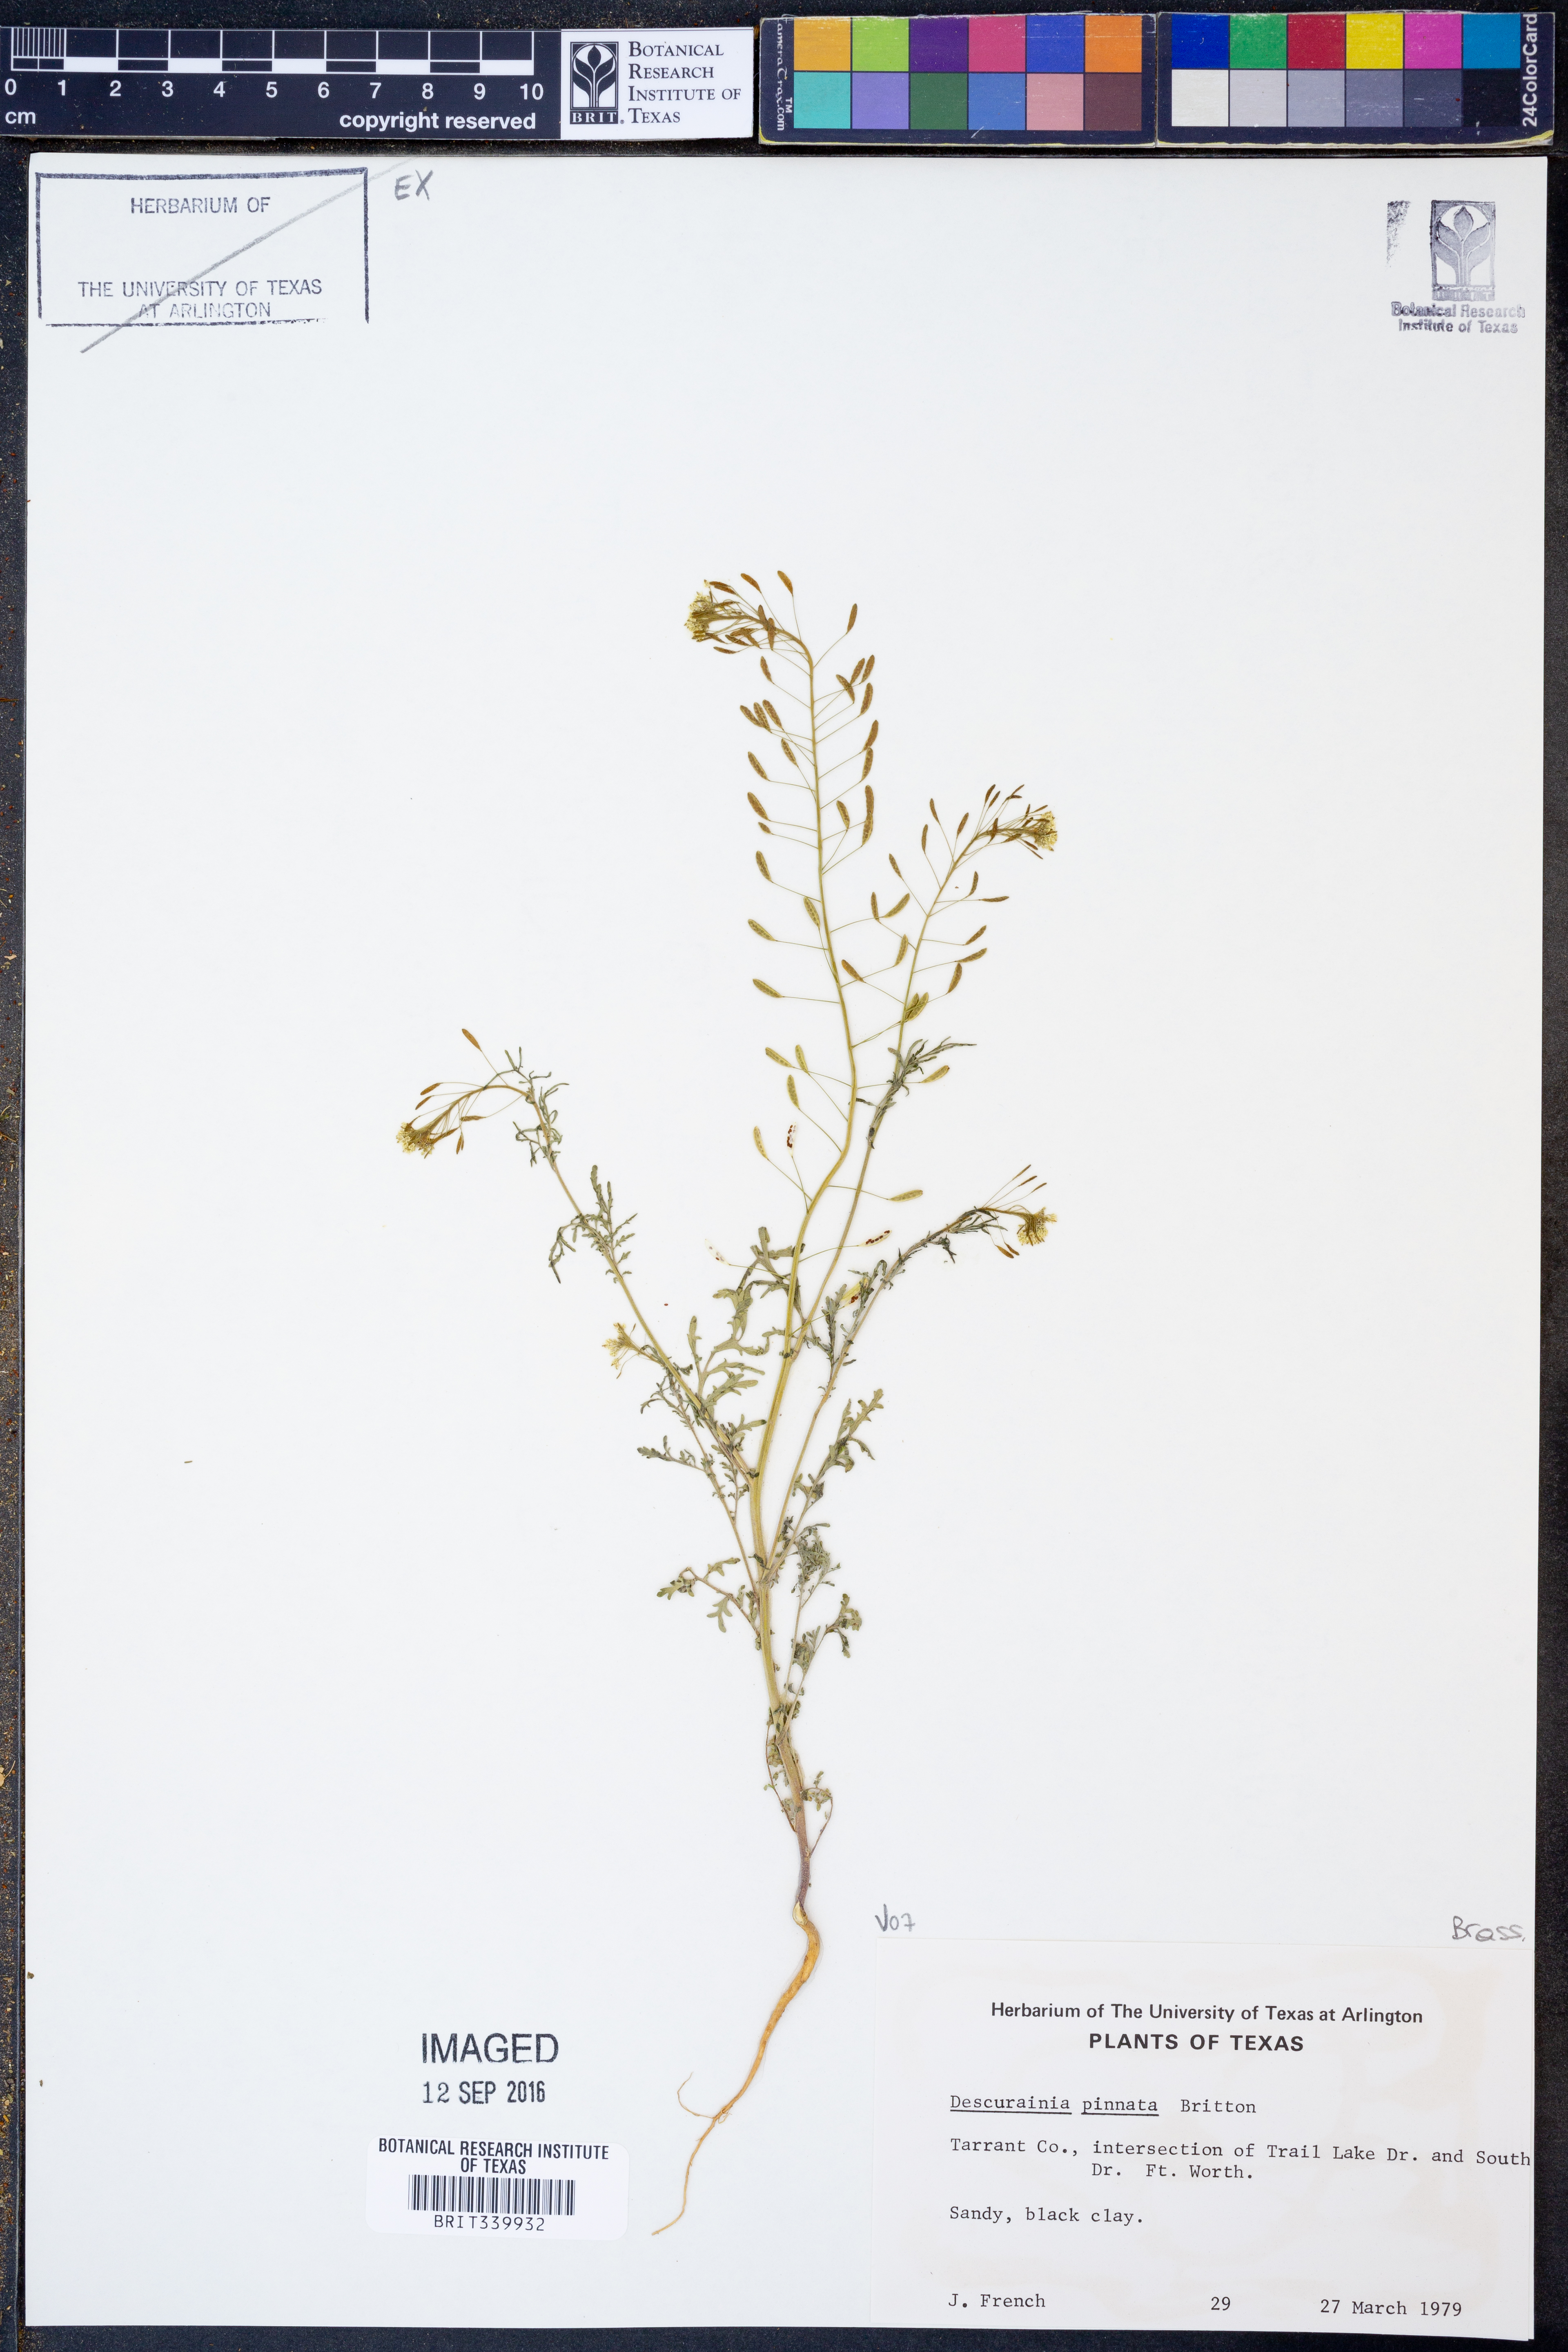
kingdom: Plantae
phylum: Tracheophyta
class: Magnoliopsida
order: Brassicales
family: Brassicaceae
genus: Descurainia
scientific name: Descurainia pinnata
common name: Western tansy mustard
